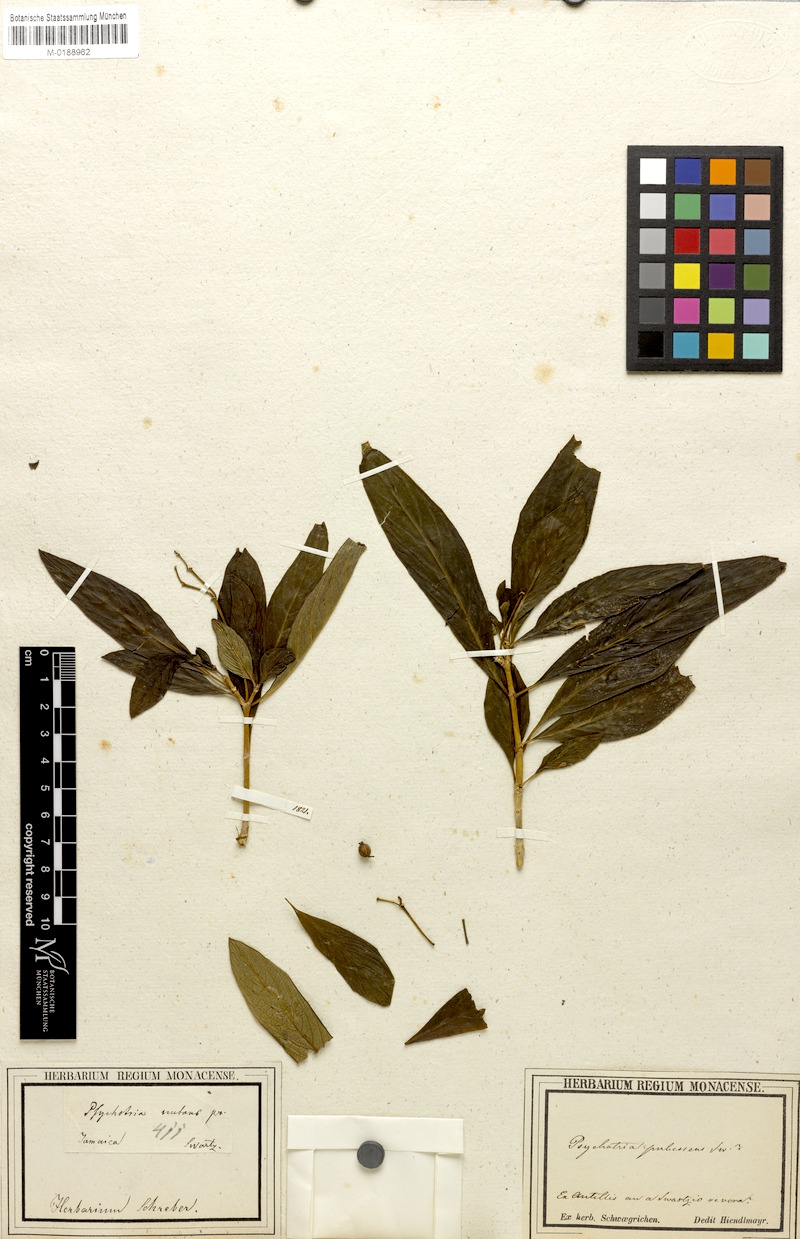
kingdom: Plantae
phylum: Tracheophyta
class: Magnoliopsida
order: Gentianales
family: Rubiaceae
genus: Palicourea
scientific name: Palicourea pubescens
